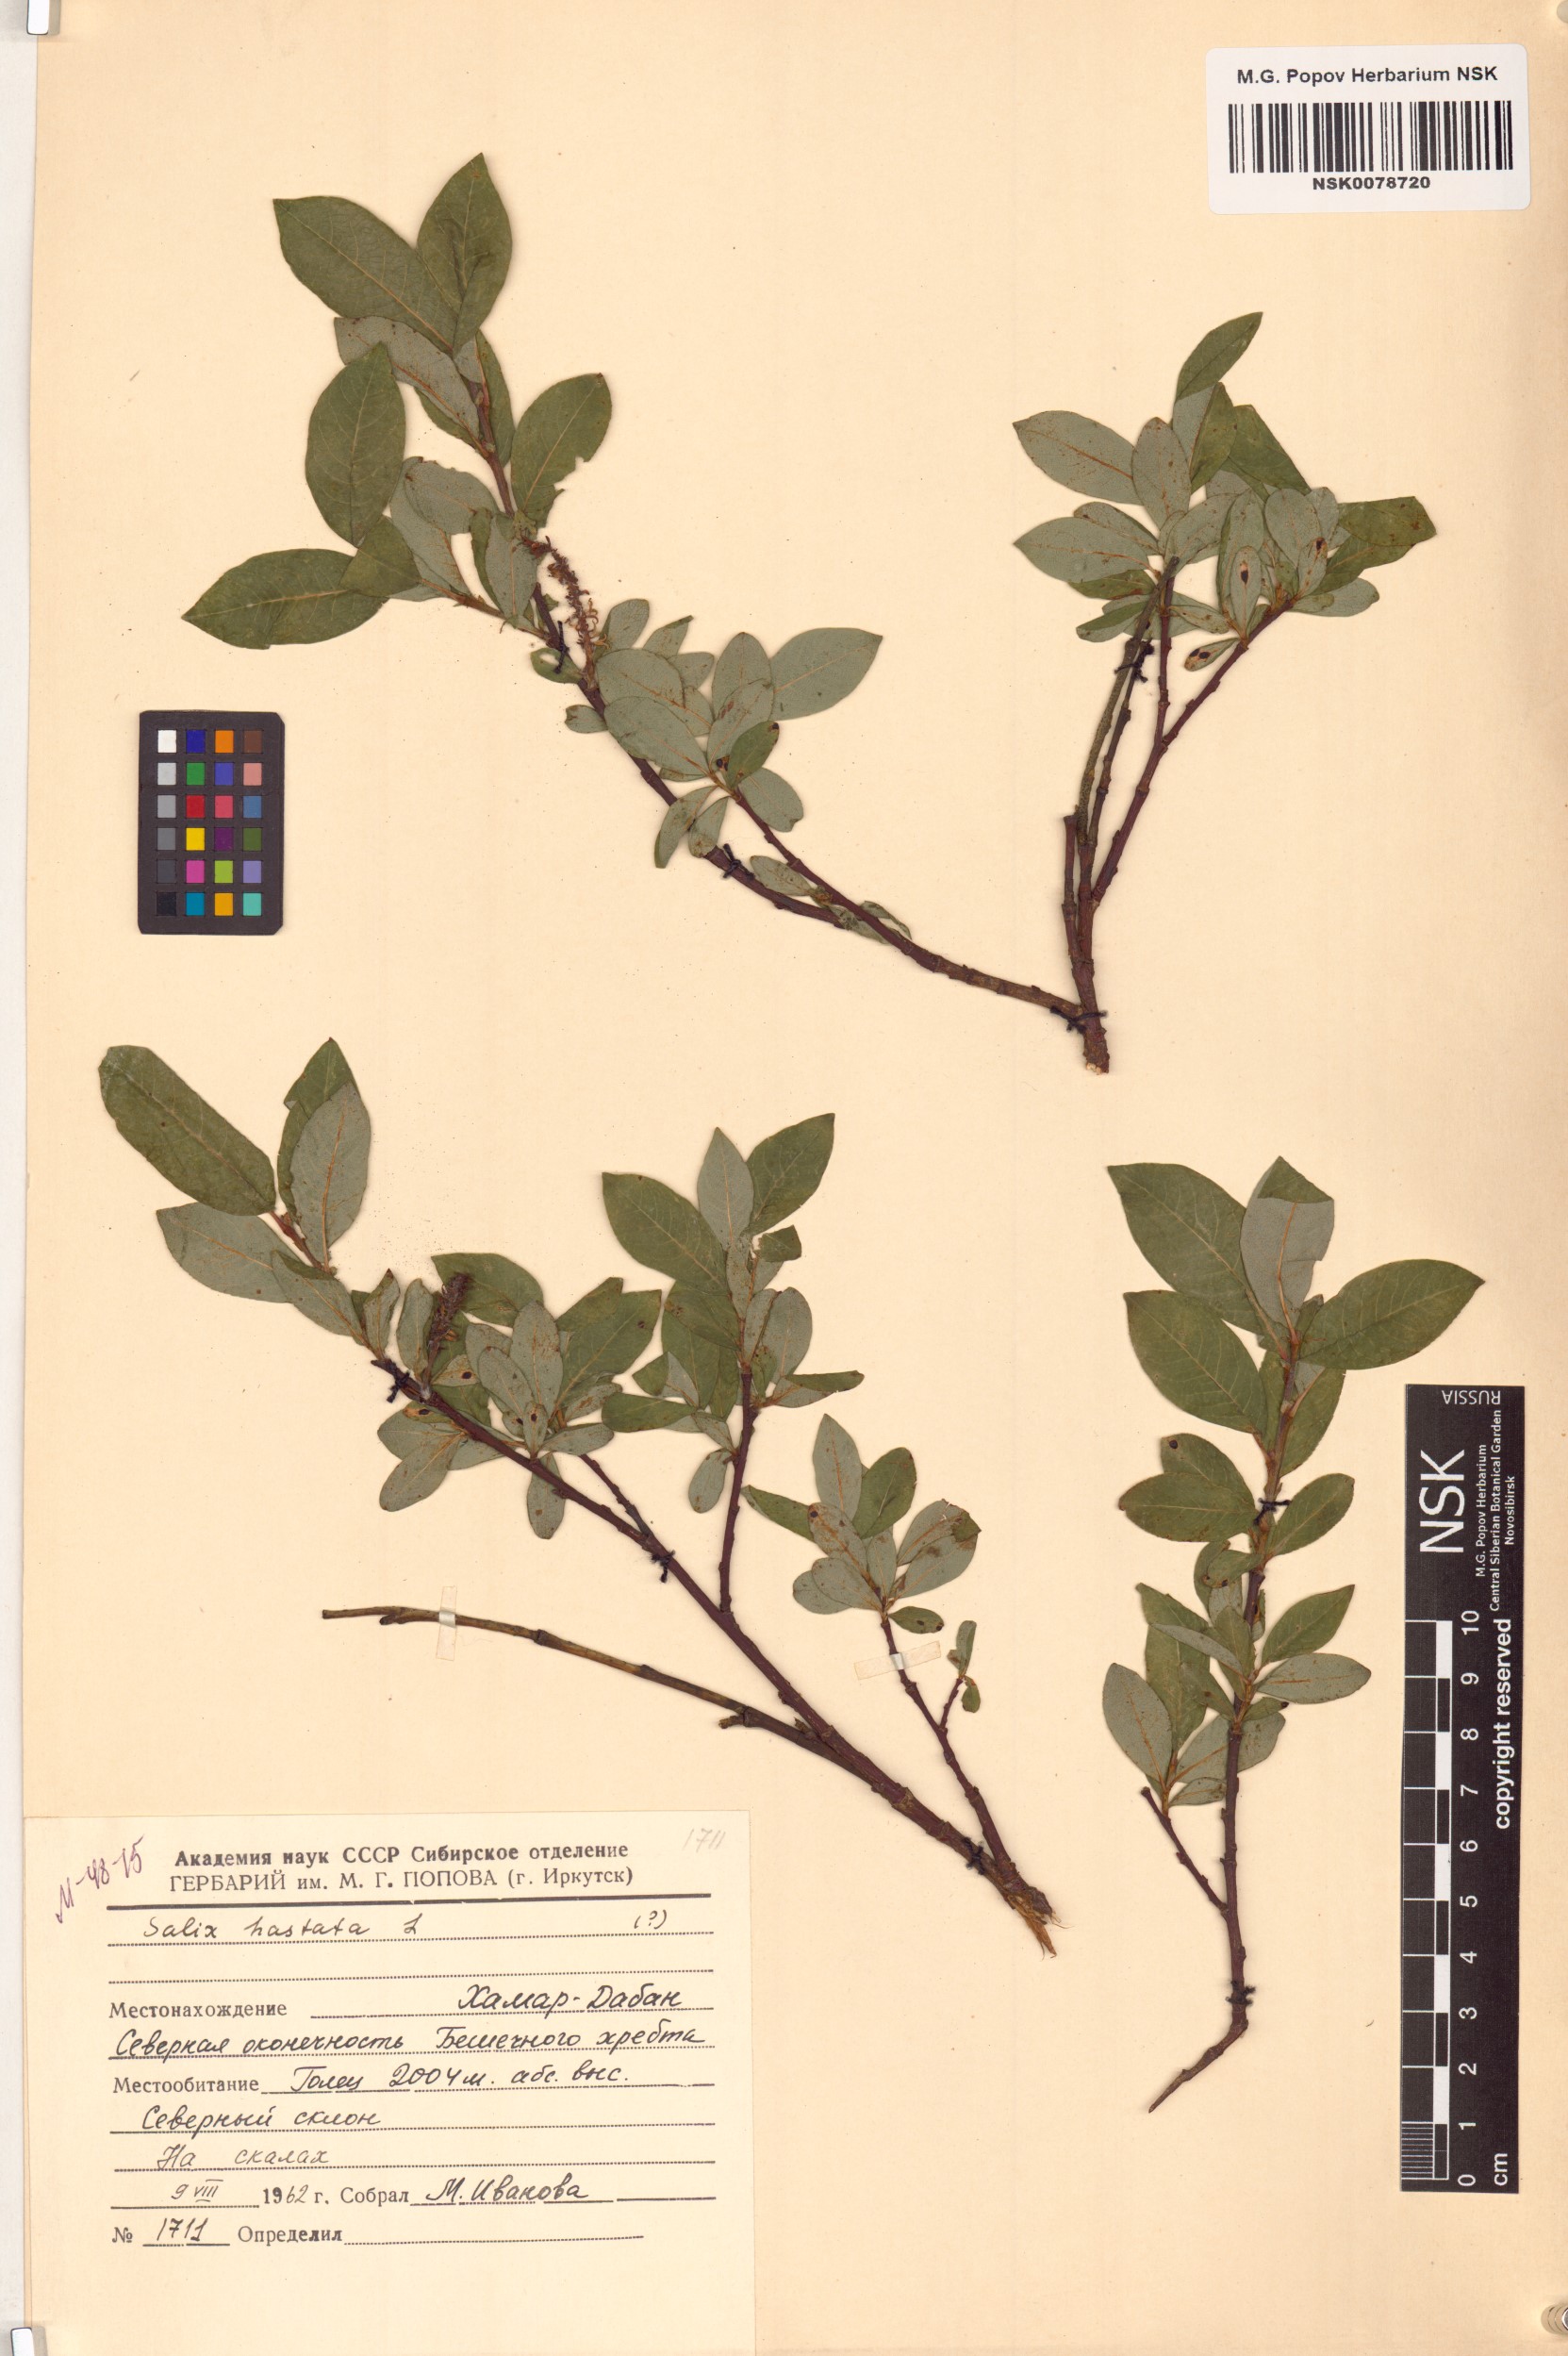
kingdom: Plantae
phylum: Tracheophyta
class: Magnoliopsida
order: Malpighiales
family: Salicaceae
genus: Salix
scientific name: Salix hastata
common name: Halberd willow
